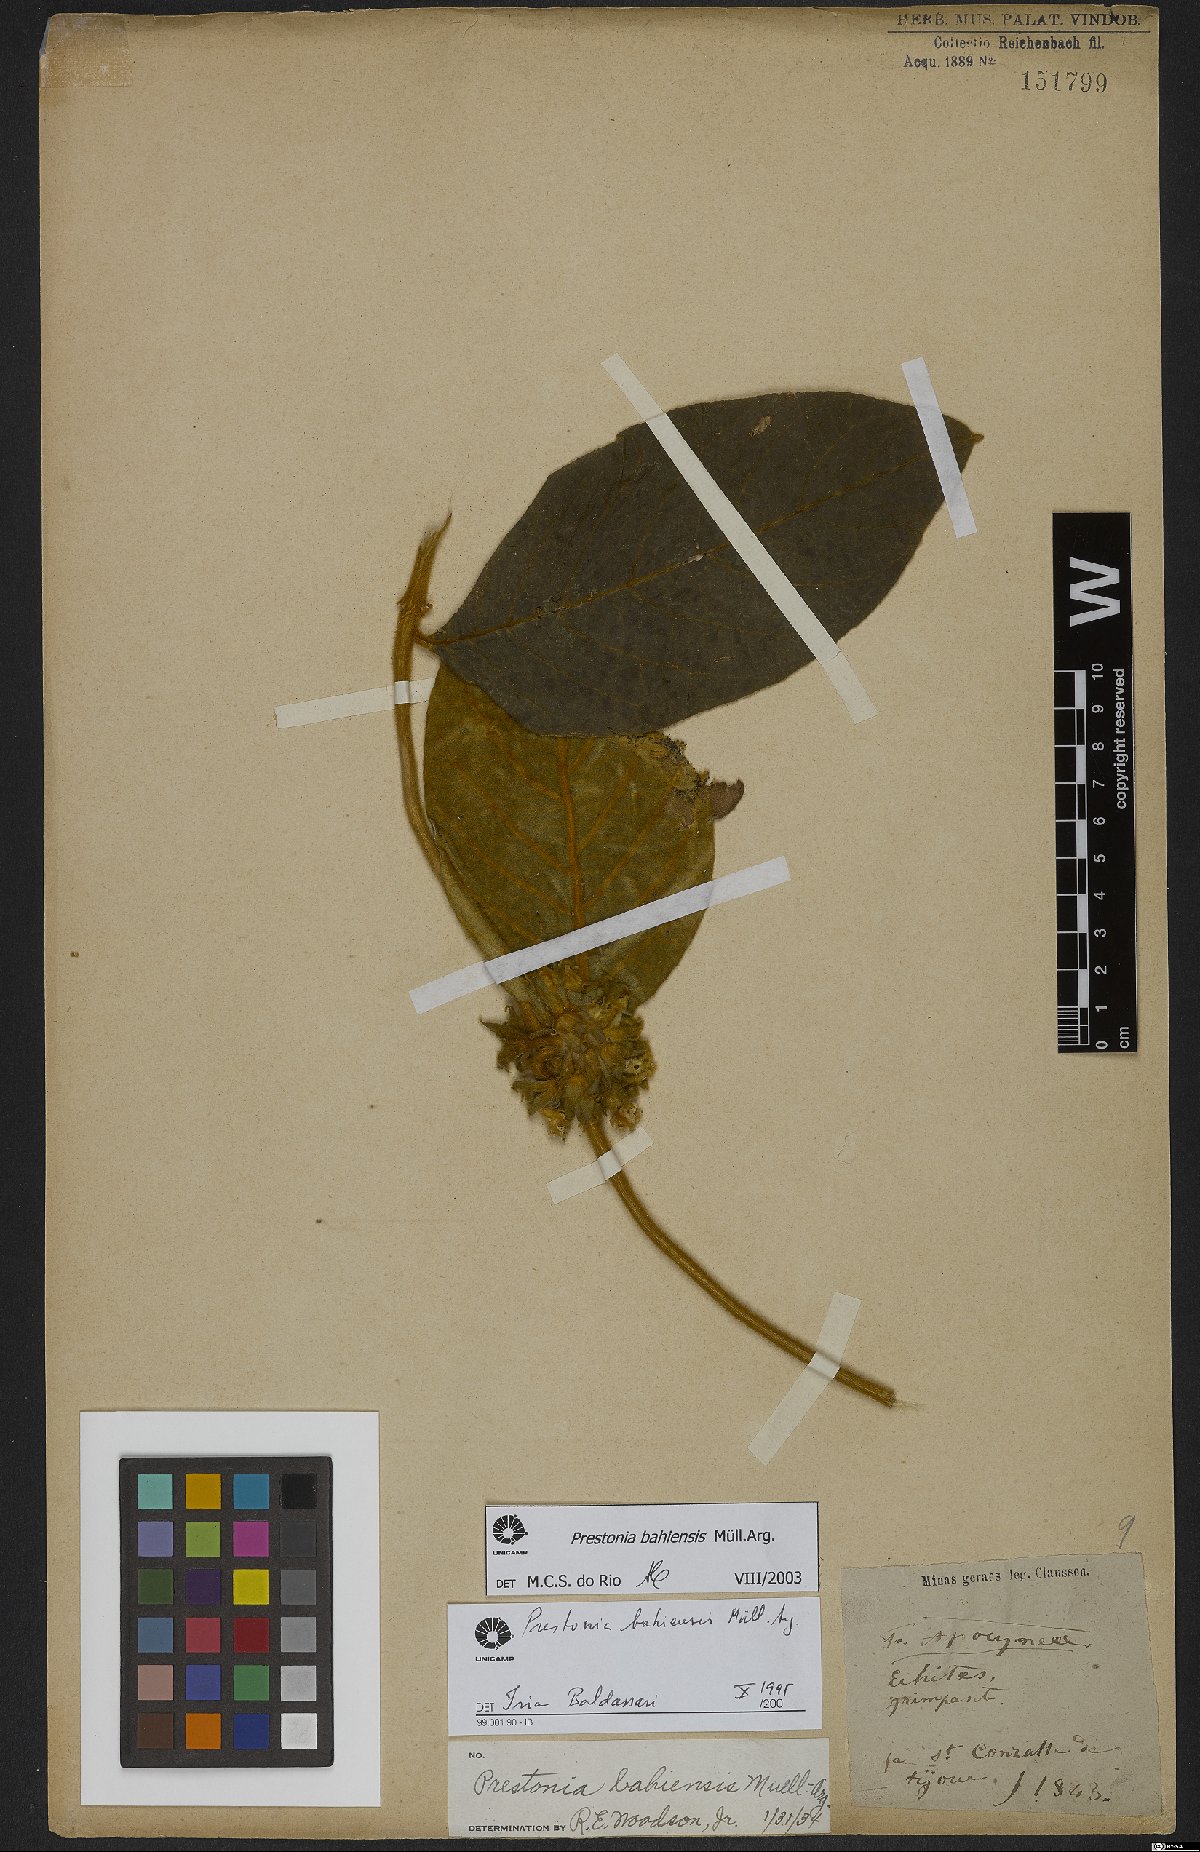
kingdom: Plantae
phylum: Tracheophyta
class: Magnoliopsida
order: Gentianales
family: Apocynaceae
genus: Prestonia
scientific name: Prestonia bahiensis
